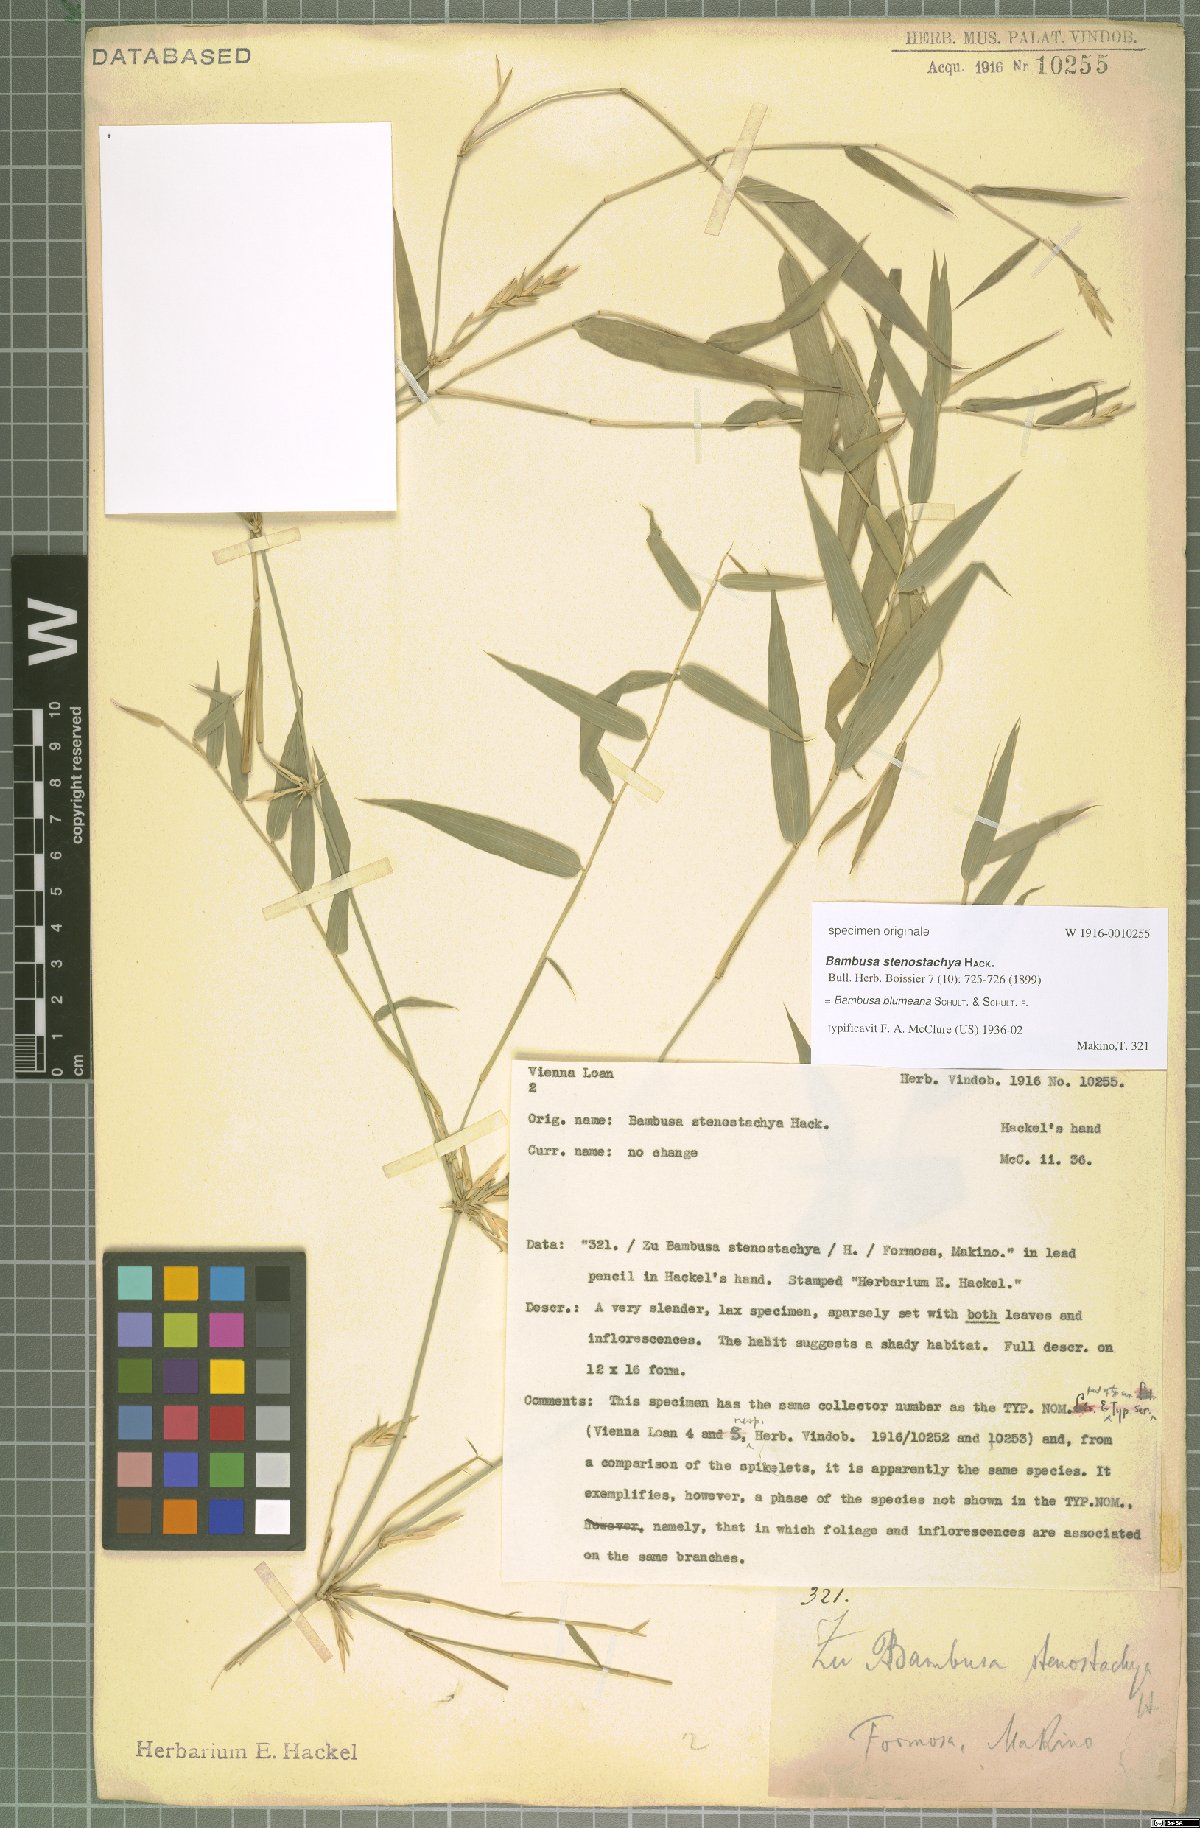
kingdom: Plantae
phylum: Tracheophyta
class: Liliopsida
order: Poales
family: Poaceae
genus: Bambusa
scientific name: Bambusa spinosa
